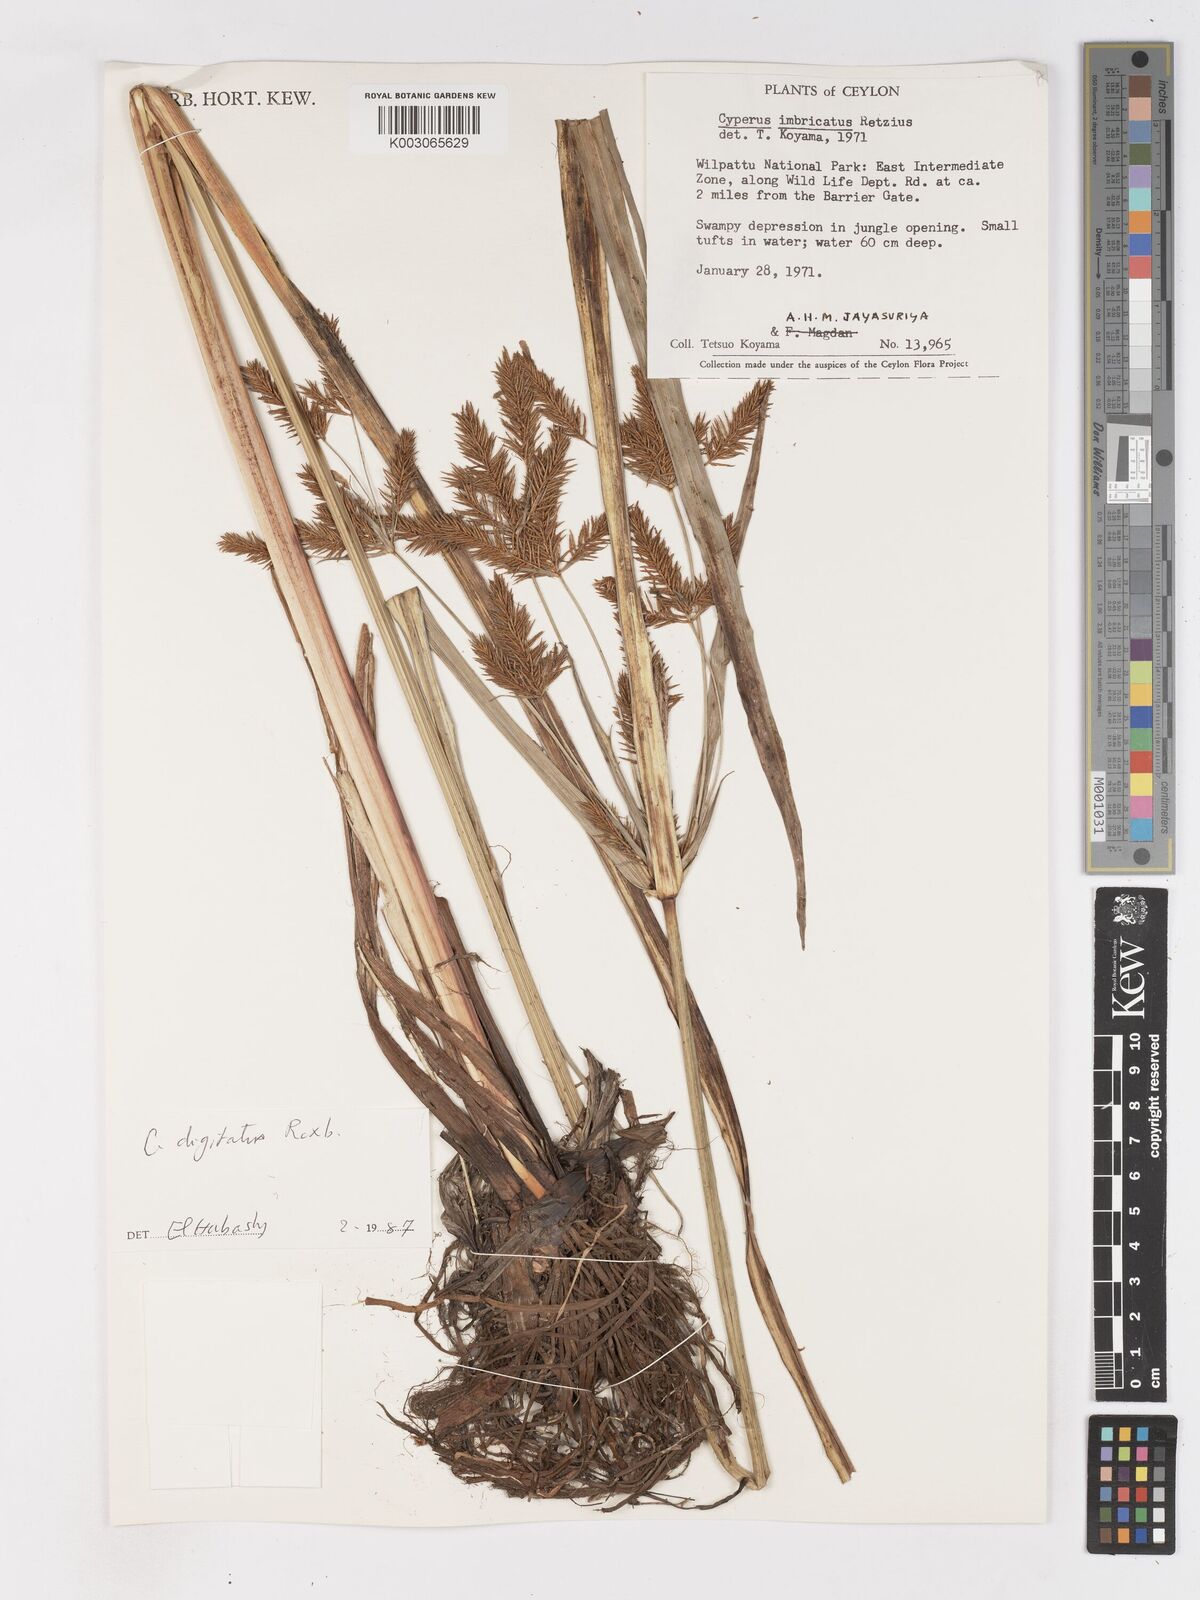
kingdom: Plantae
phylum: Tracheophyta
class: Liliopsida
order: Poales
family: Cyperaceae
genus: Cyperus
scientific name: Cyperus imbricatus
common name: Shingle flatsedge
